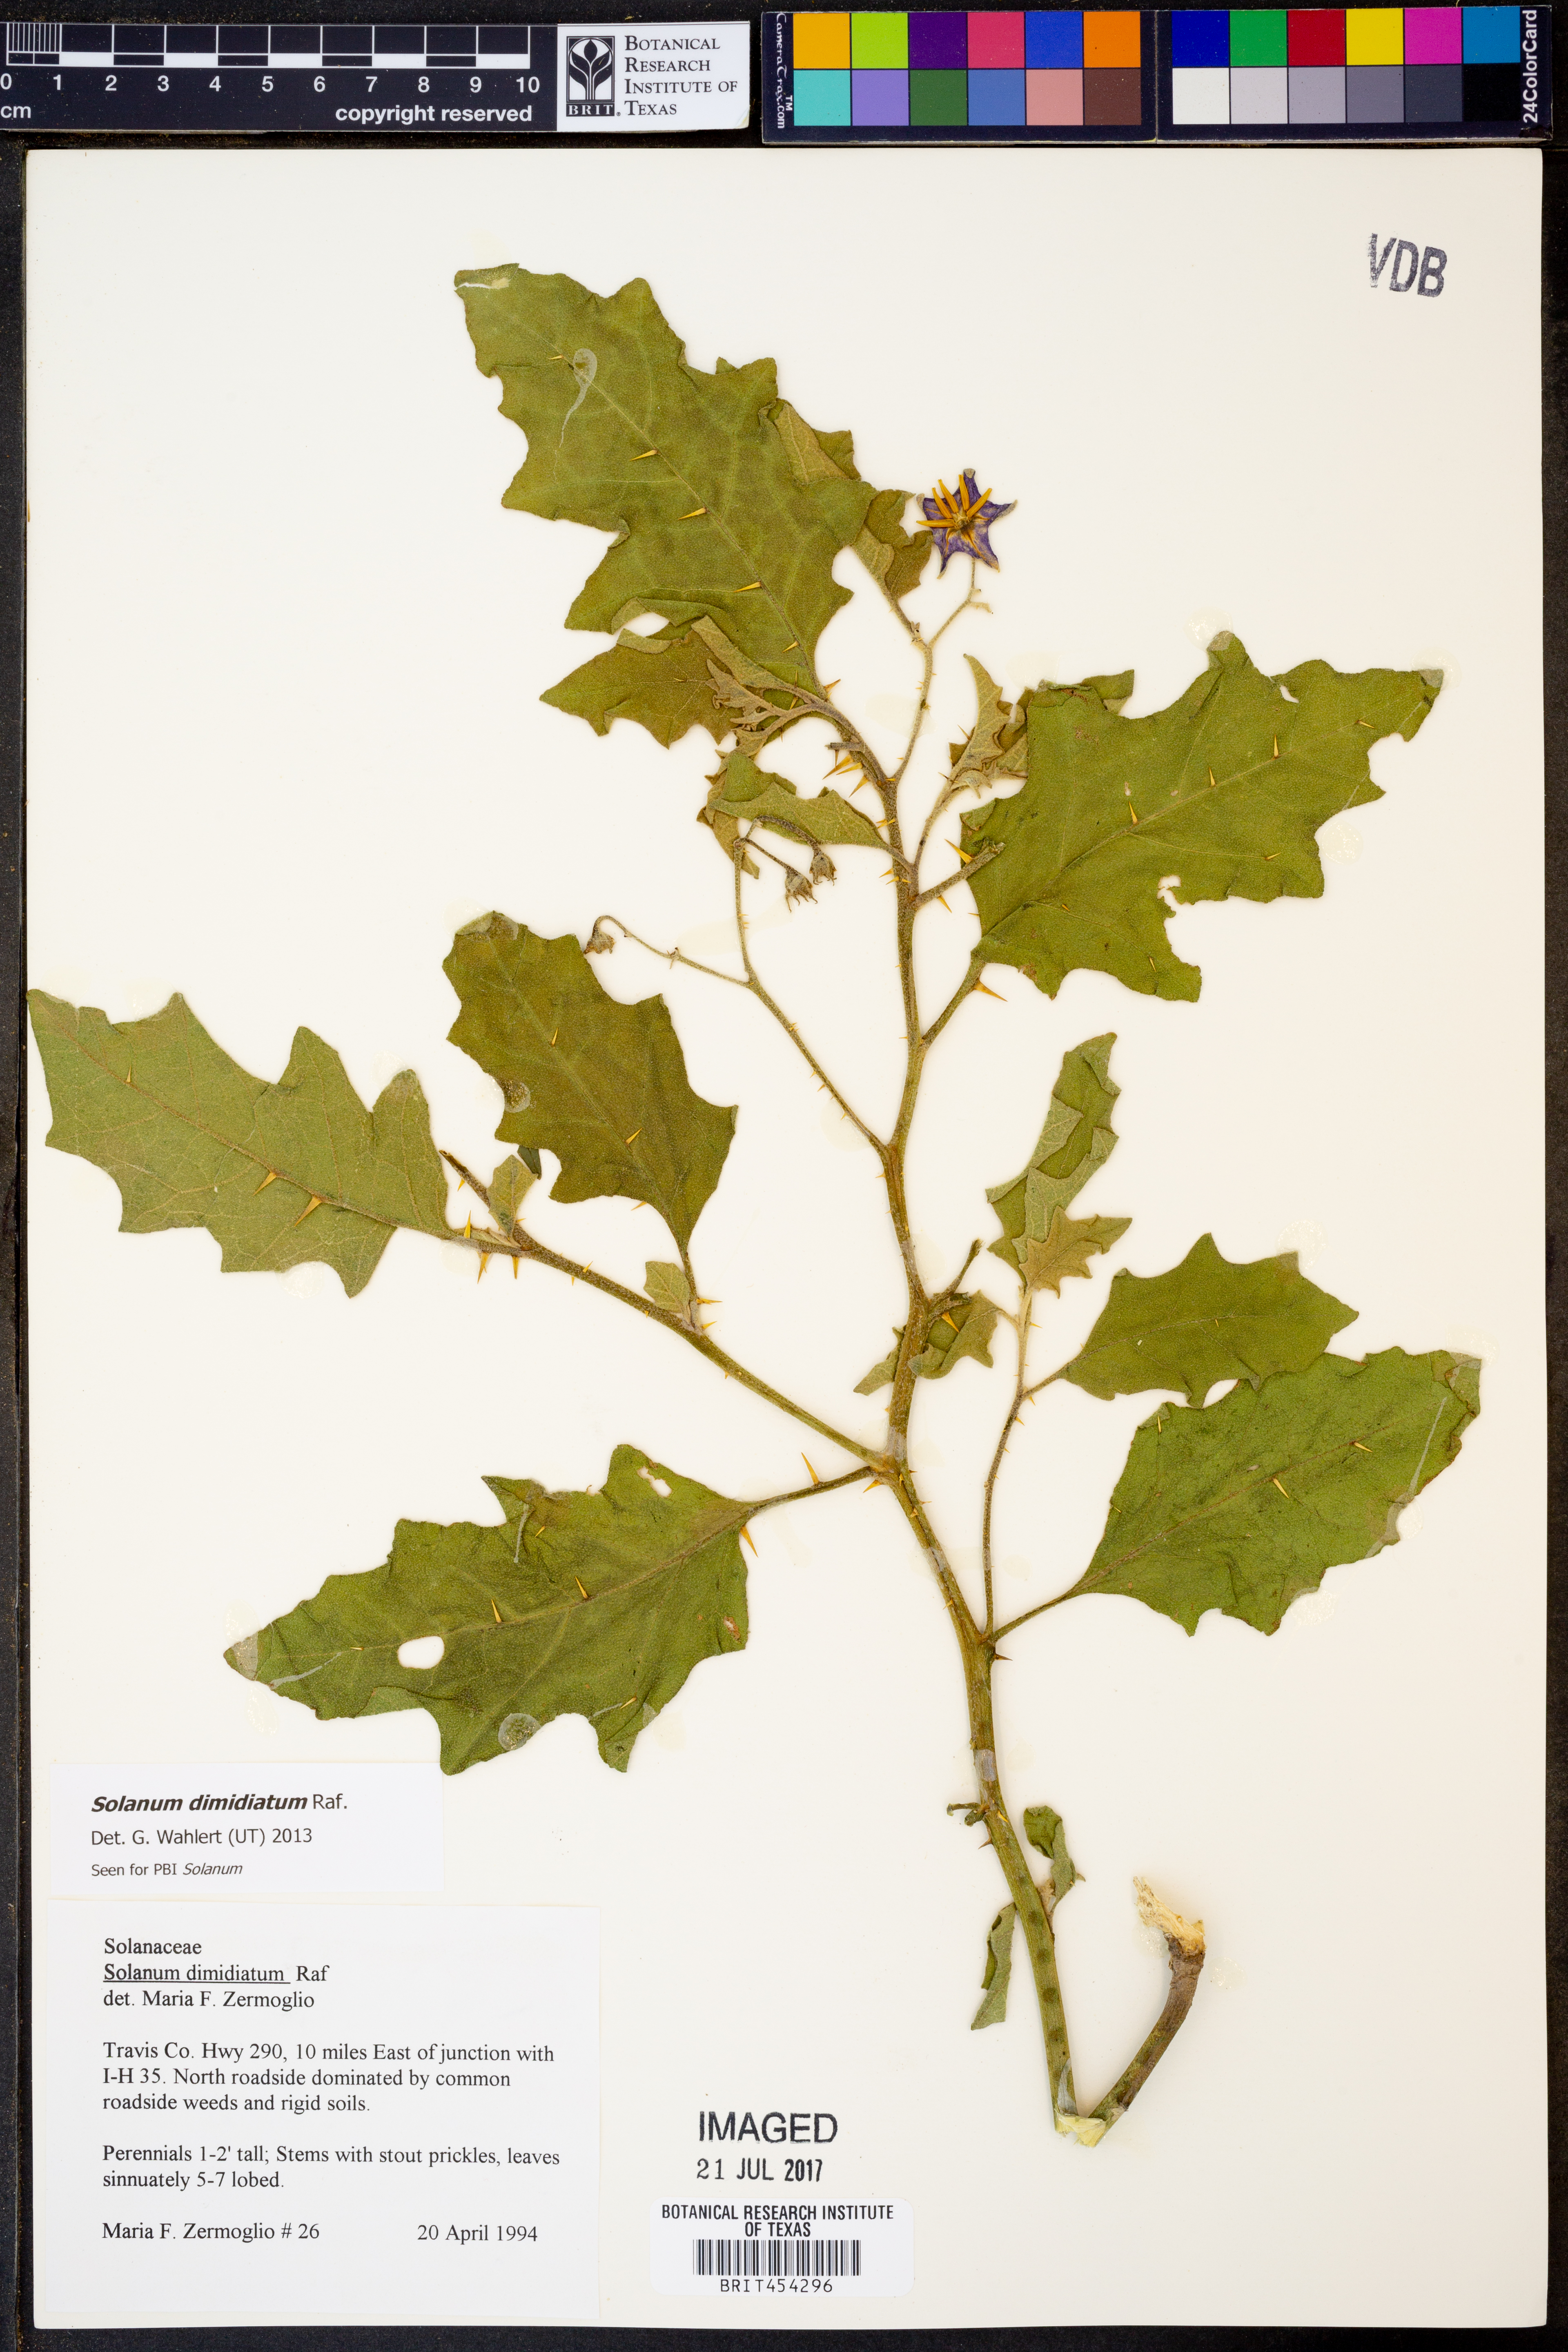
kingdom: Plantae
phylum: Tracheophyta
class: Magnoliopsida
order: Solanales
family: Solanaceae
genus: Solanum
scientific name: Solanum dimidiatum
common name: Carolina horse-nettle
